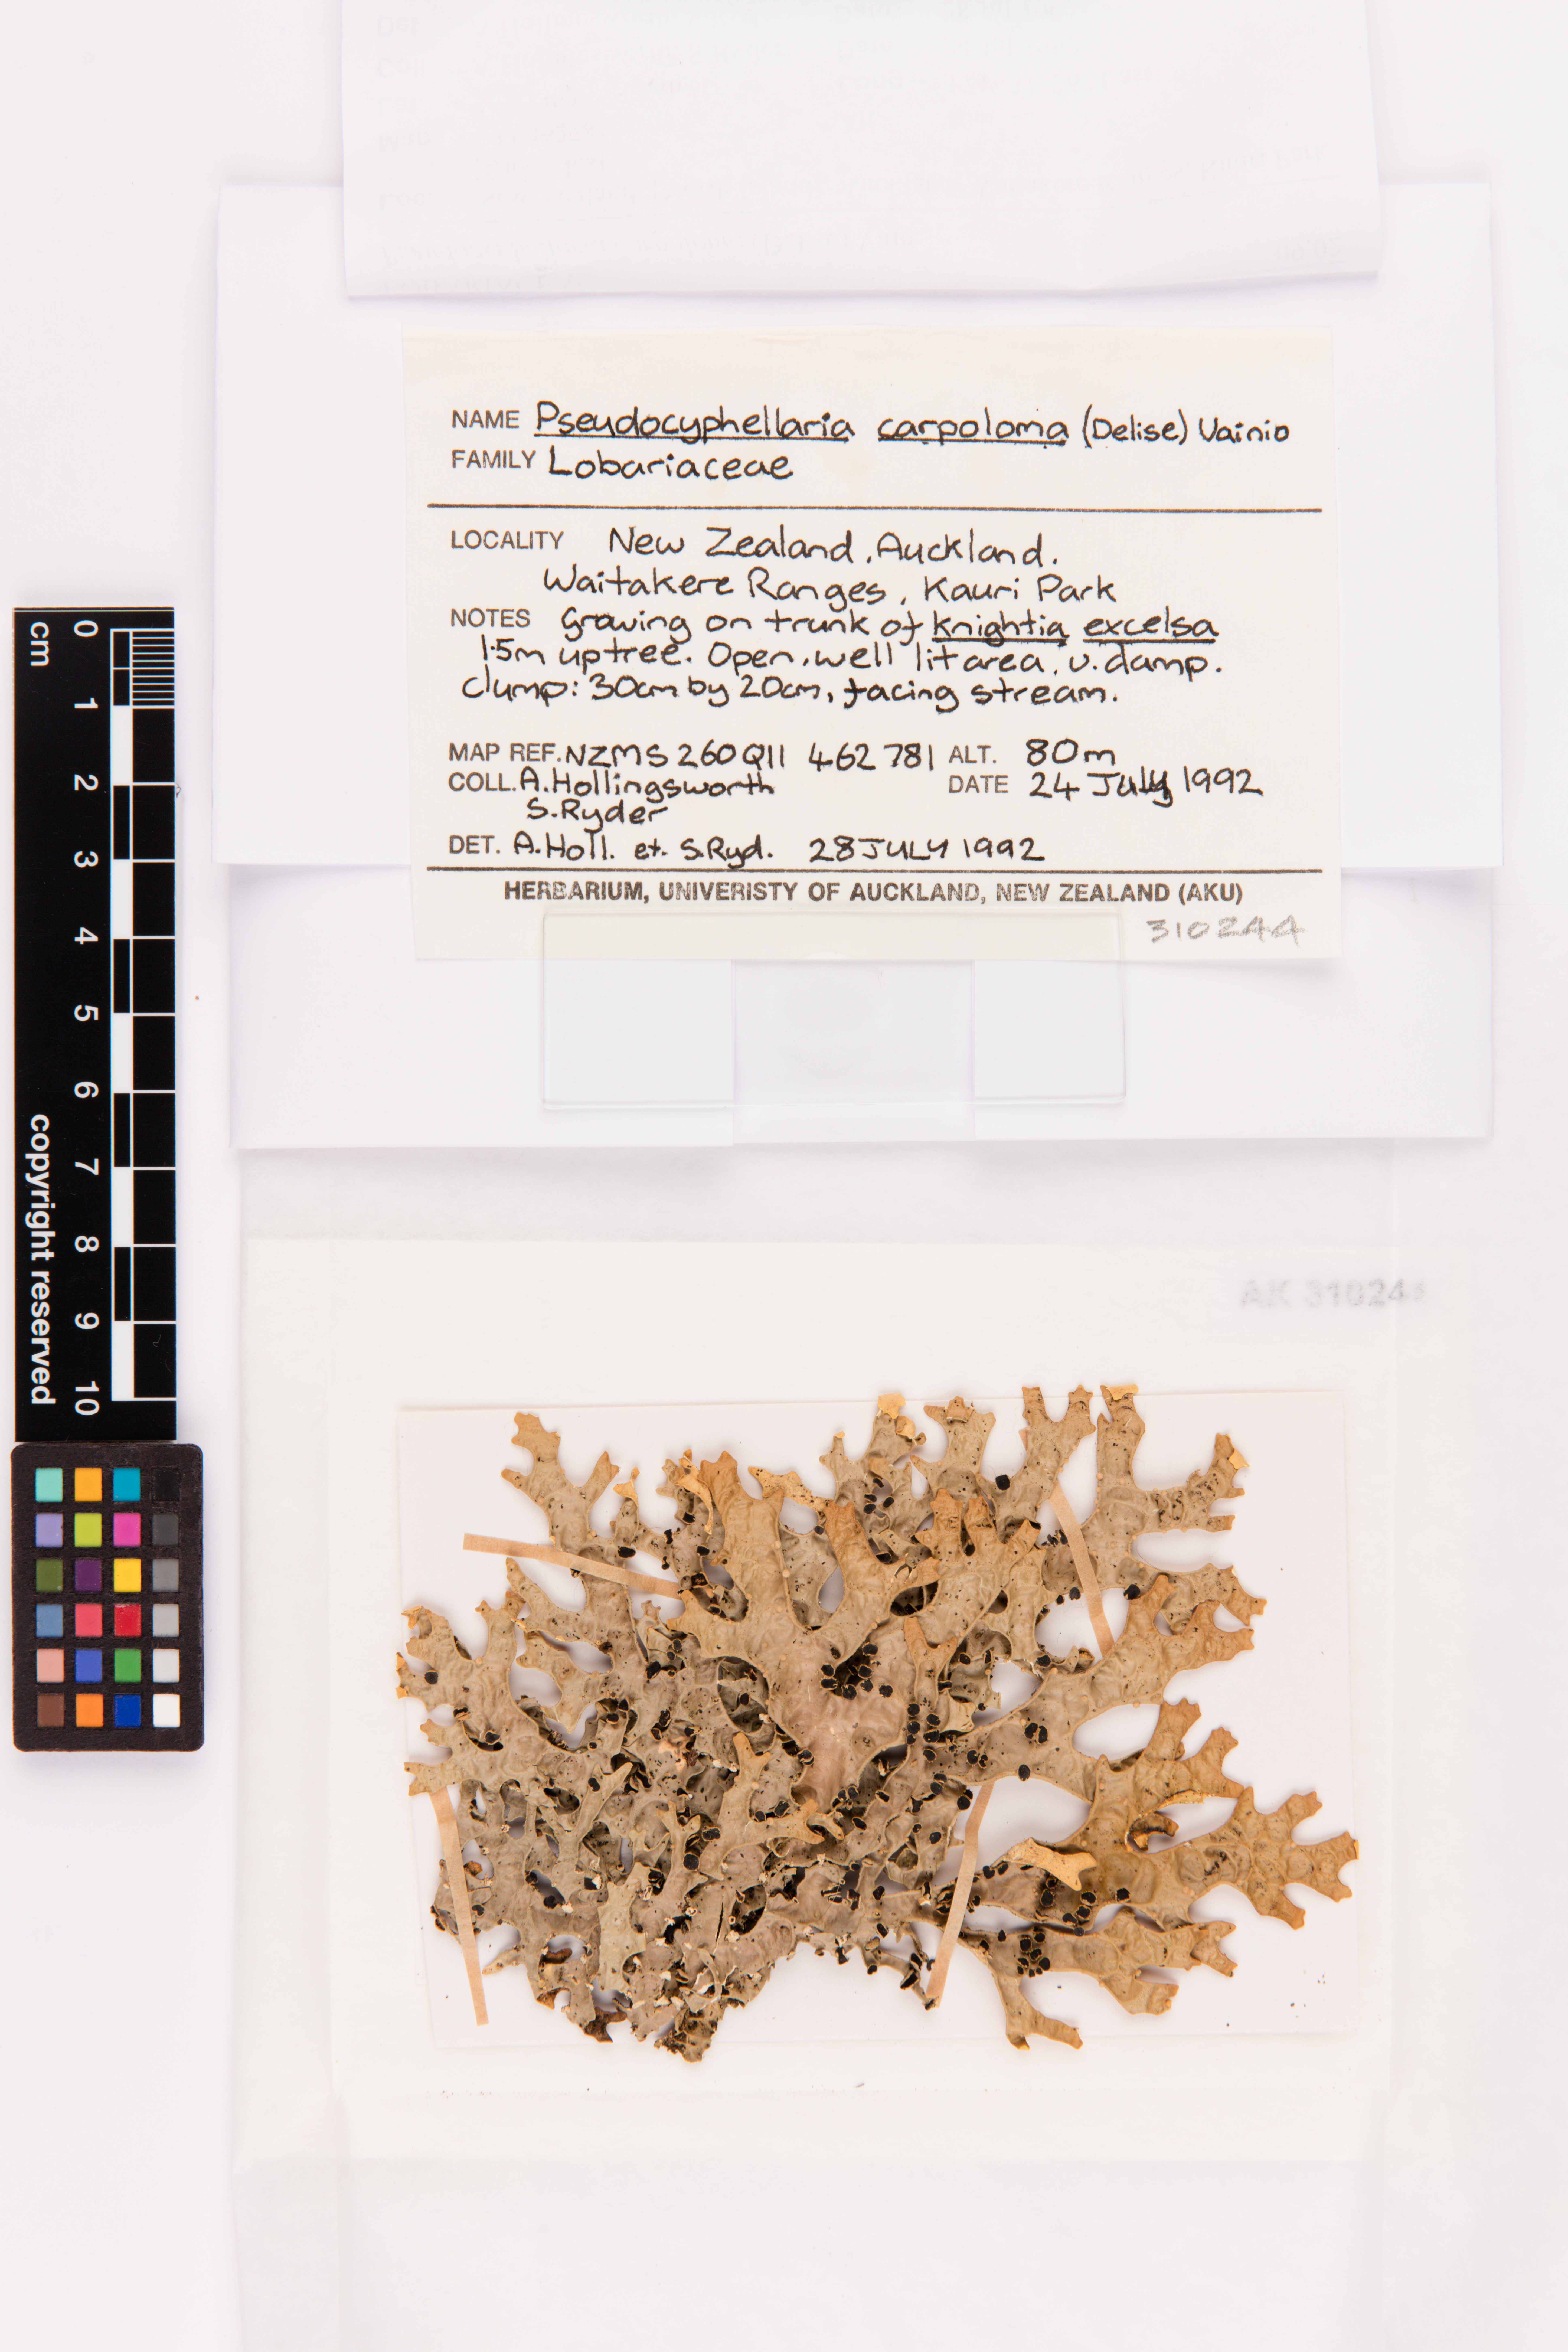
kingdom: Fungi
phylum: Ascomycota
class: Lecanoromycetes
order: Peltigerales
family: Lobariaceae
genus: Pseudocyphellaria
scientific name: Pseudocyphellaria carpoloma
